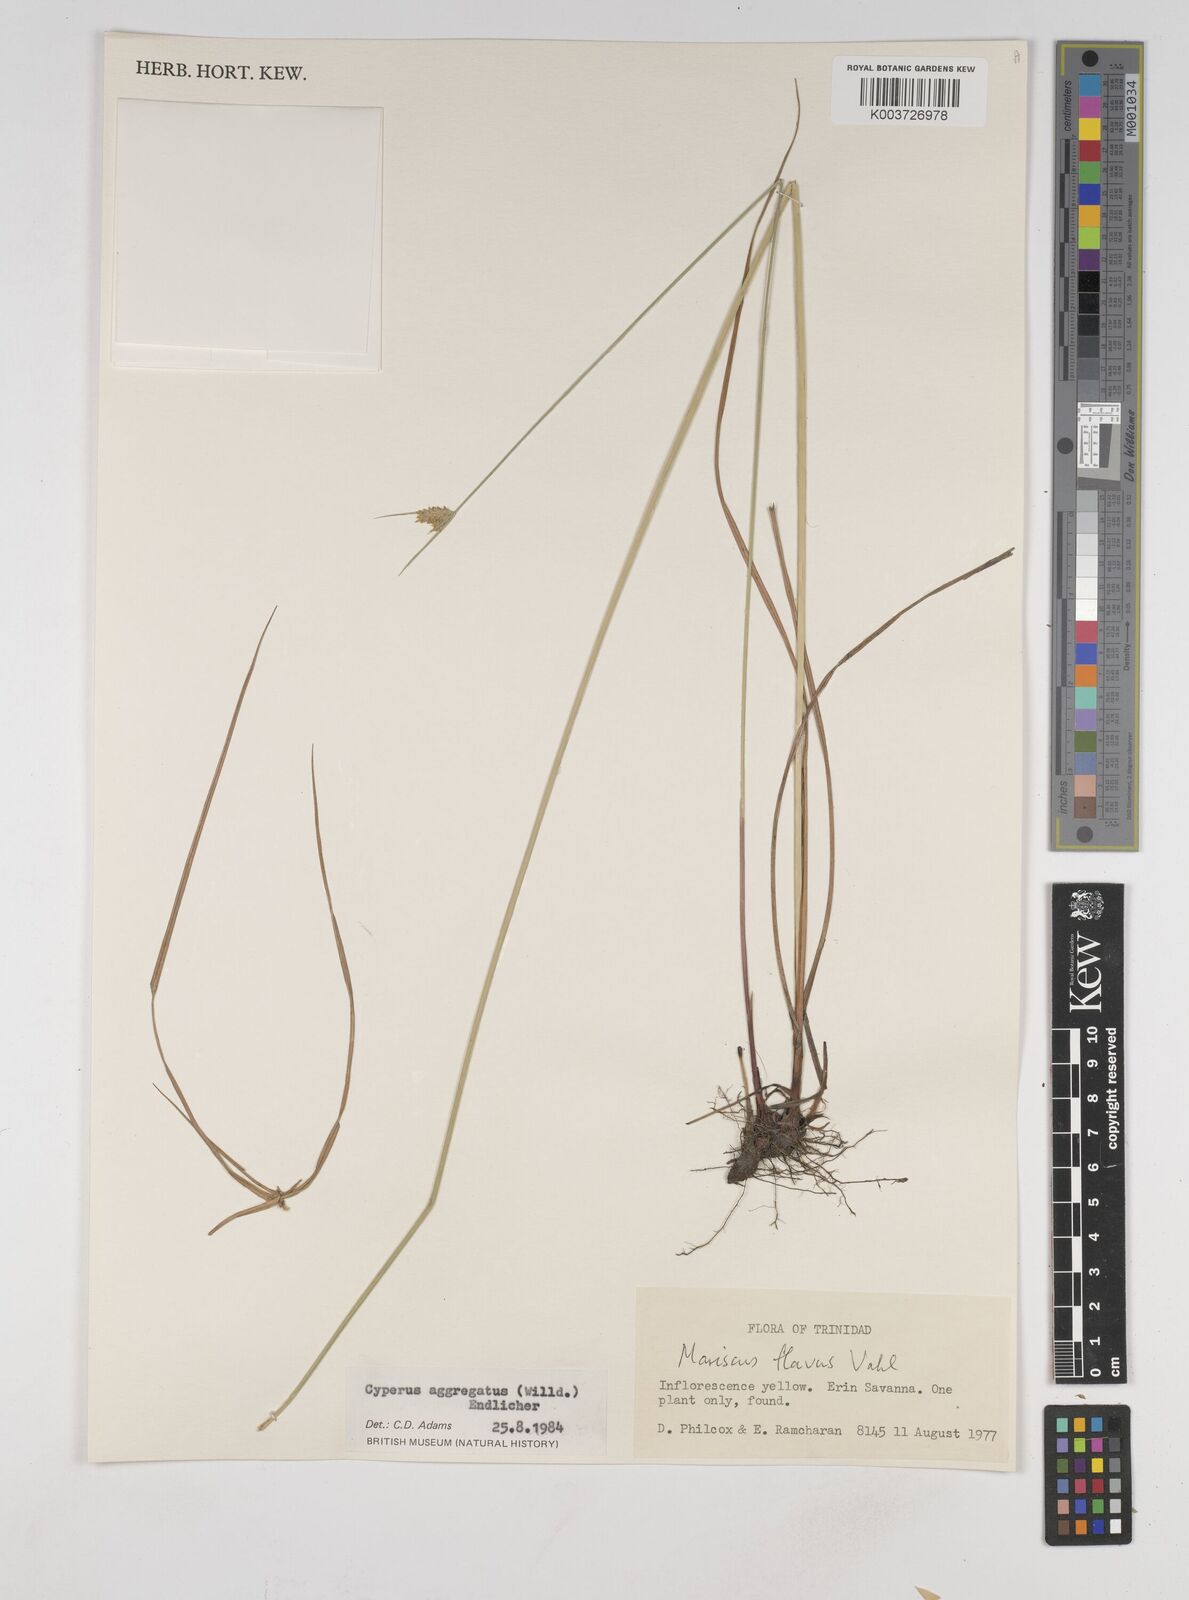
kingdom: Plantae
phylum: Tracheophyta
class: Liliopsida
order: Poales
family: Cyperaceae
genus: Cyperus
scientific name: Cyperus aggregatus
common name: Inflatedscale flatsedge
